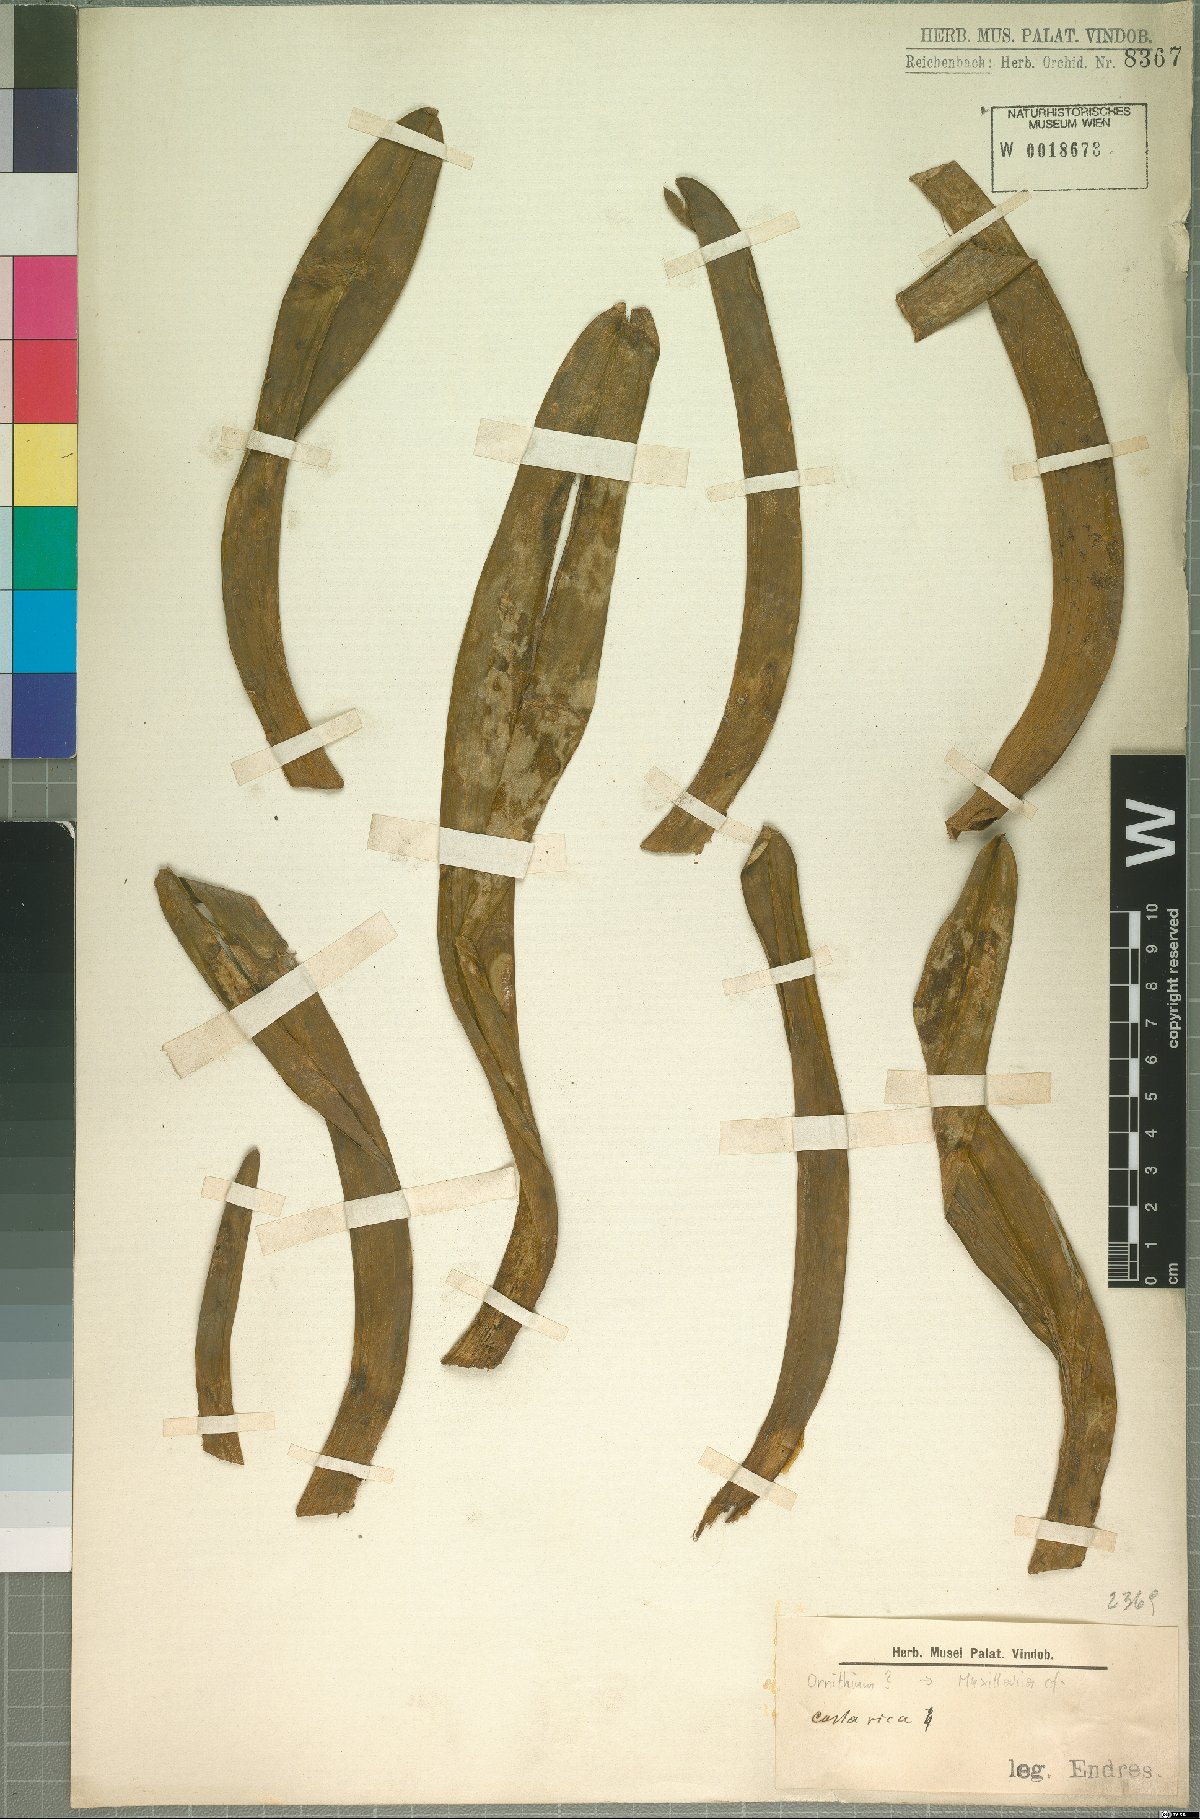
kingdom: Plantae
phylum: Tracheophyta
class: Liliopsida
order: Asparagales
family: Orchidaceae
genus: Maxillaria
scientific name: Maxillaria
